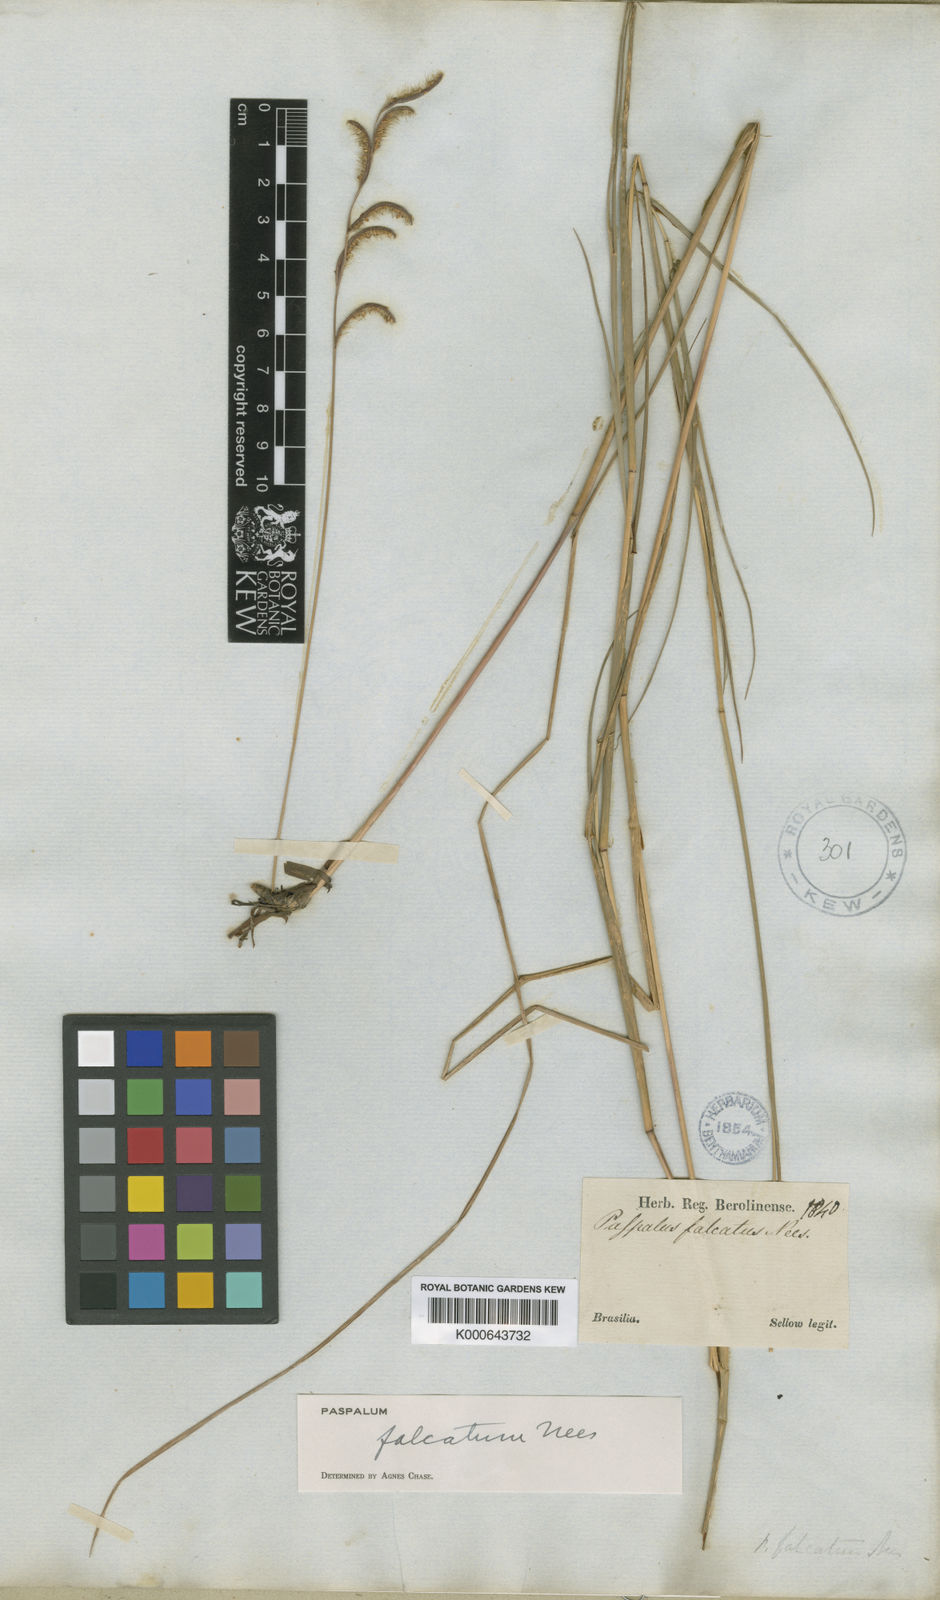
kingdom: Plantae
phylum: Tracheophyta
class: Liliopsida
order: Poales
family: Poaceae
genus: Paspalum
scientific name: Paspalum falcatum
